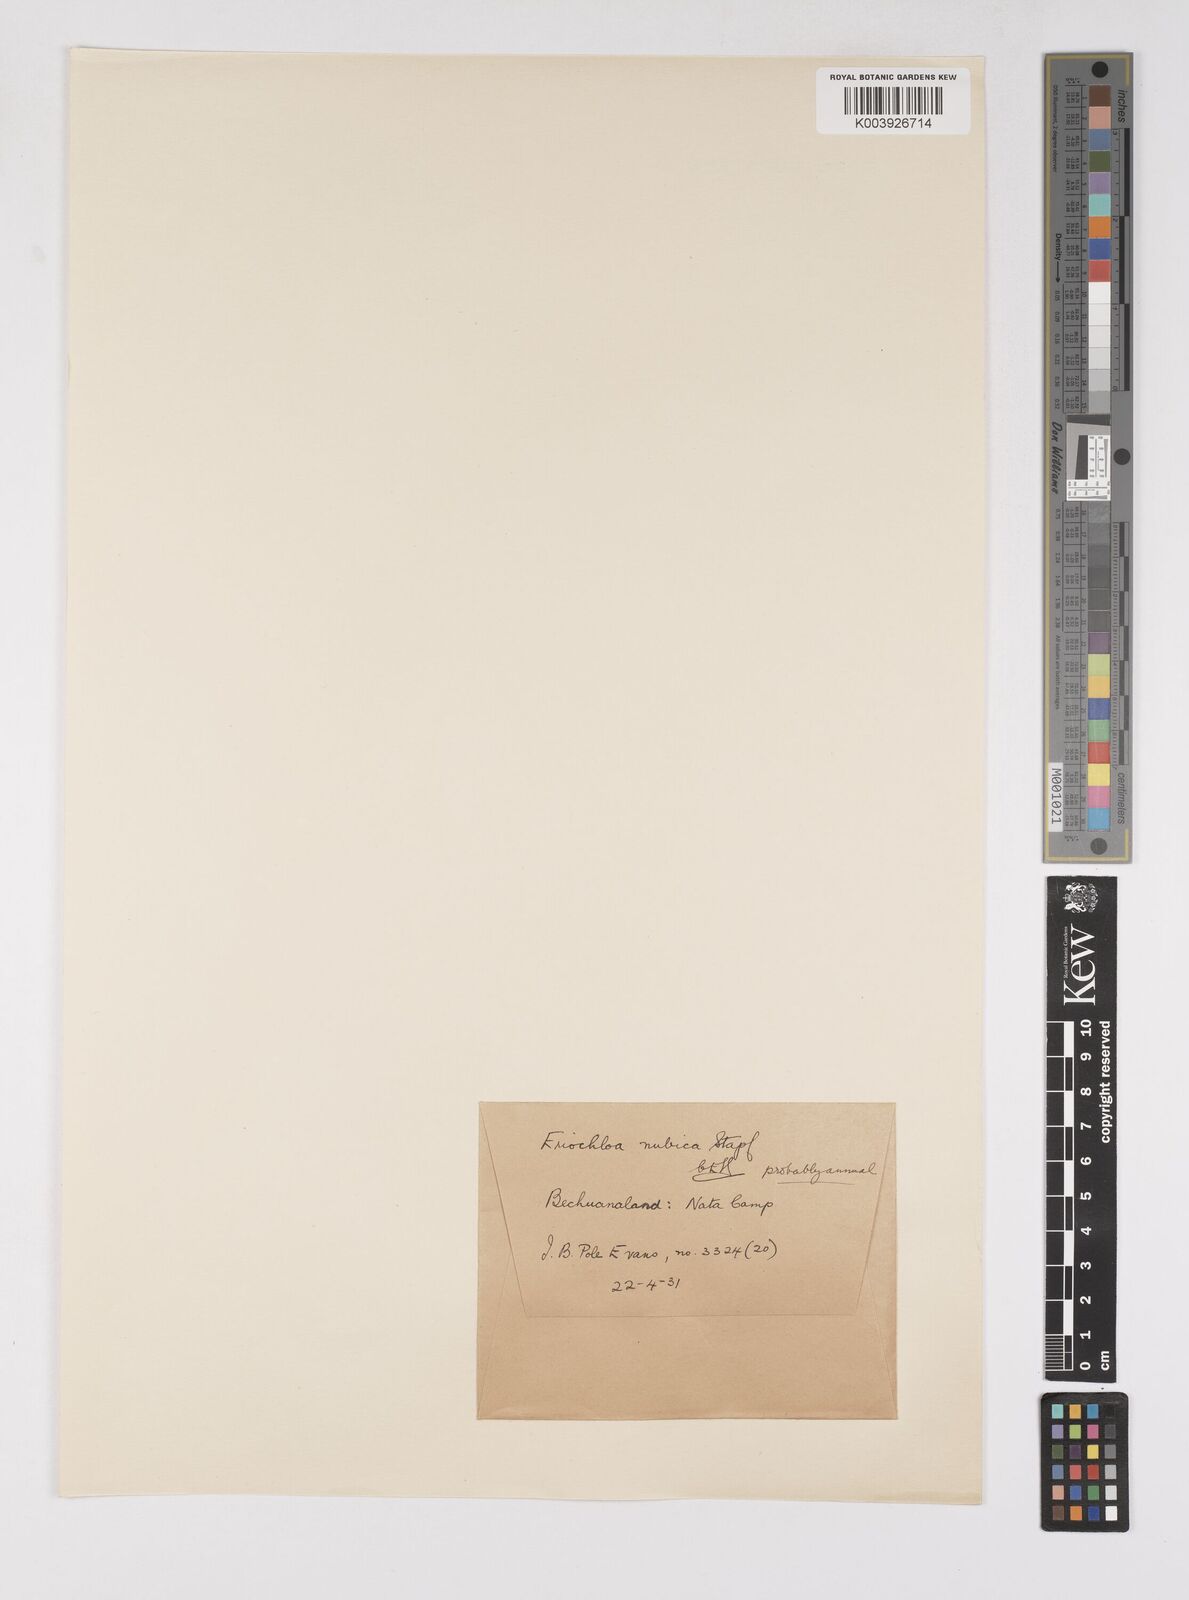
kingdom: Plantae
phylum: Tracheophyta
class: Liliopsida
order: Poales
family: Poaceae
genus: Eriochloa
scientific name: Eriochloa barbatus
